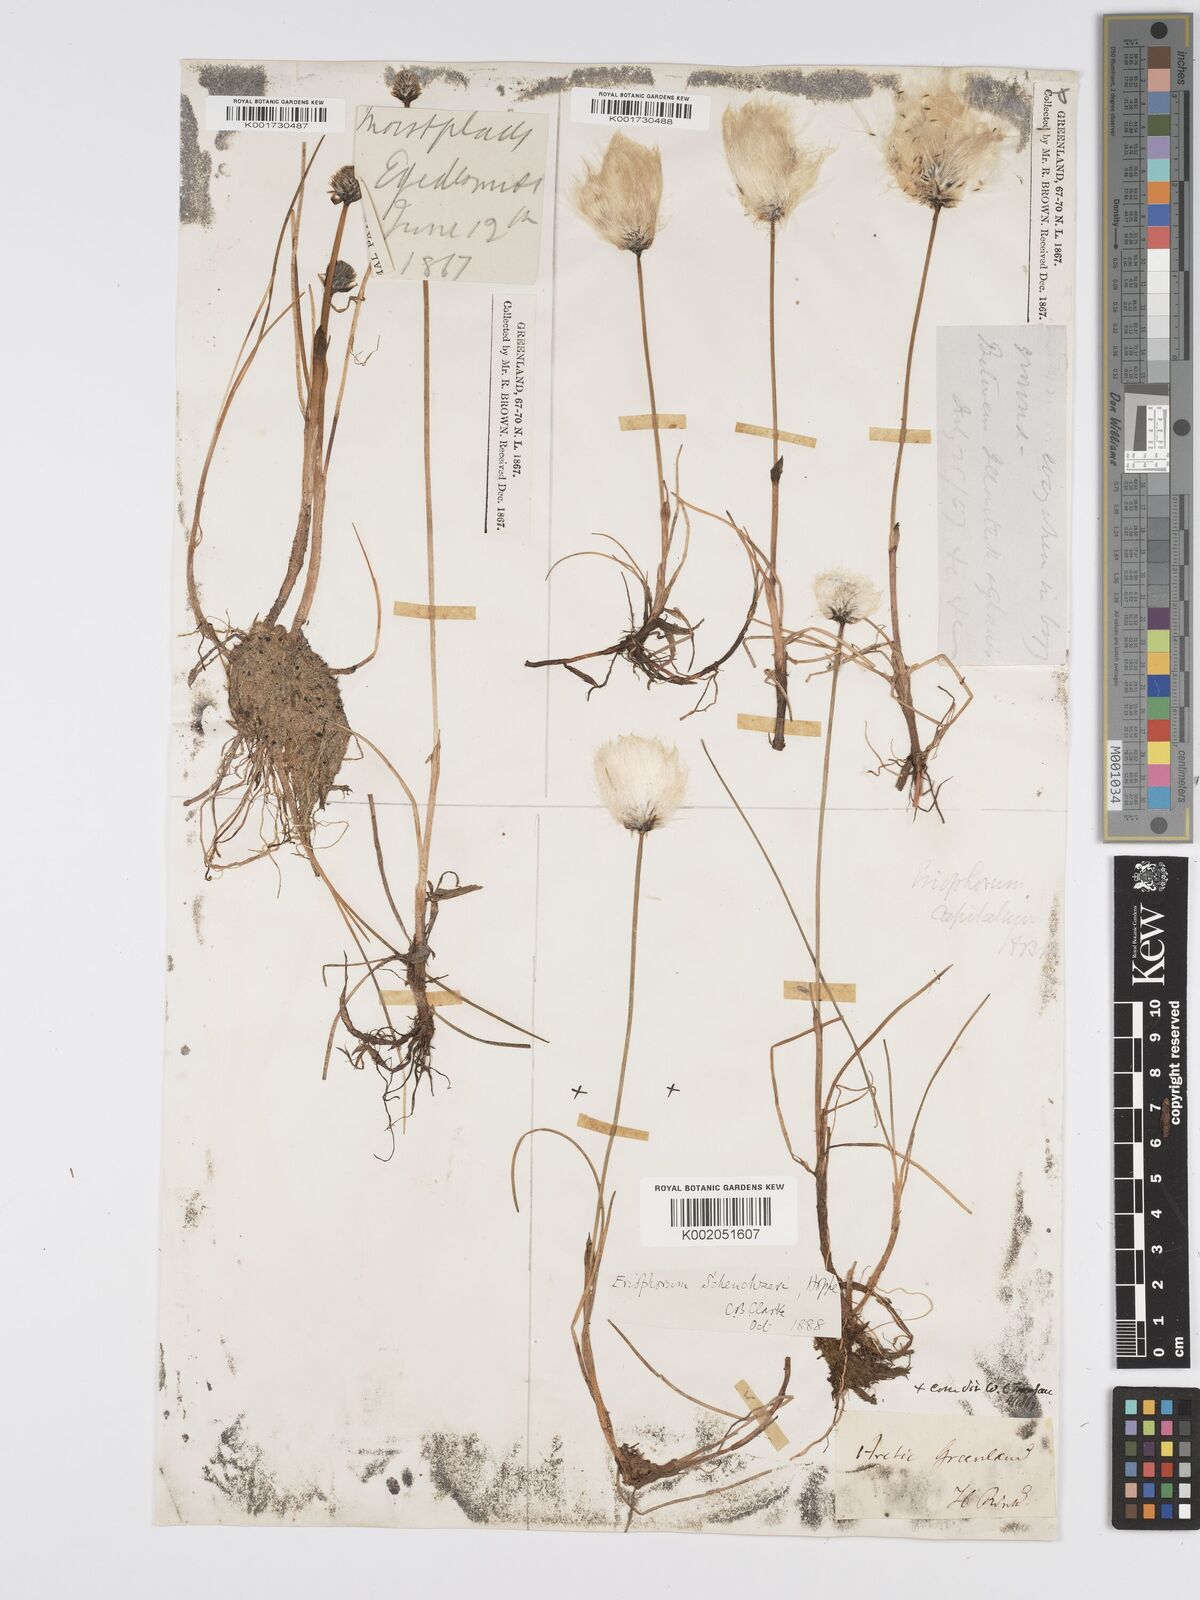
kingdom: Plantae
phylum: Tracheophyta
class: Liliopsida
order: Poales
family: Cyperaceae
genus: Eriophorum
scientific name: Eriophorum scheuchzeri
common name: Scheuchzer's cottongrass
